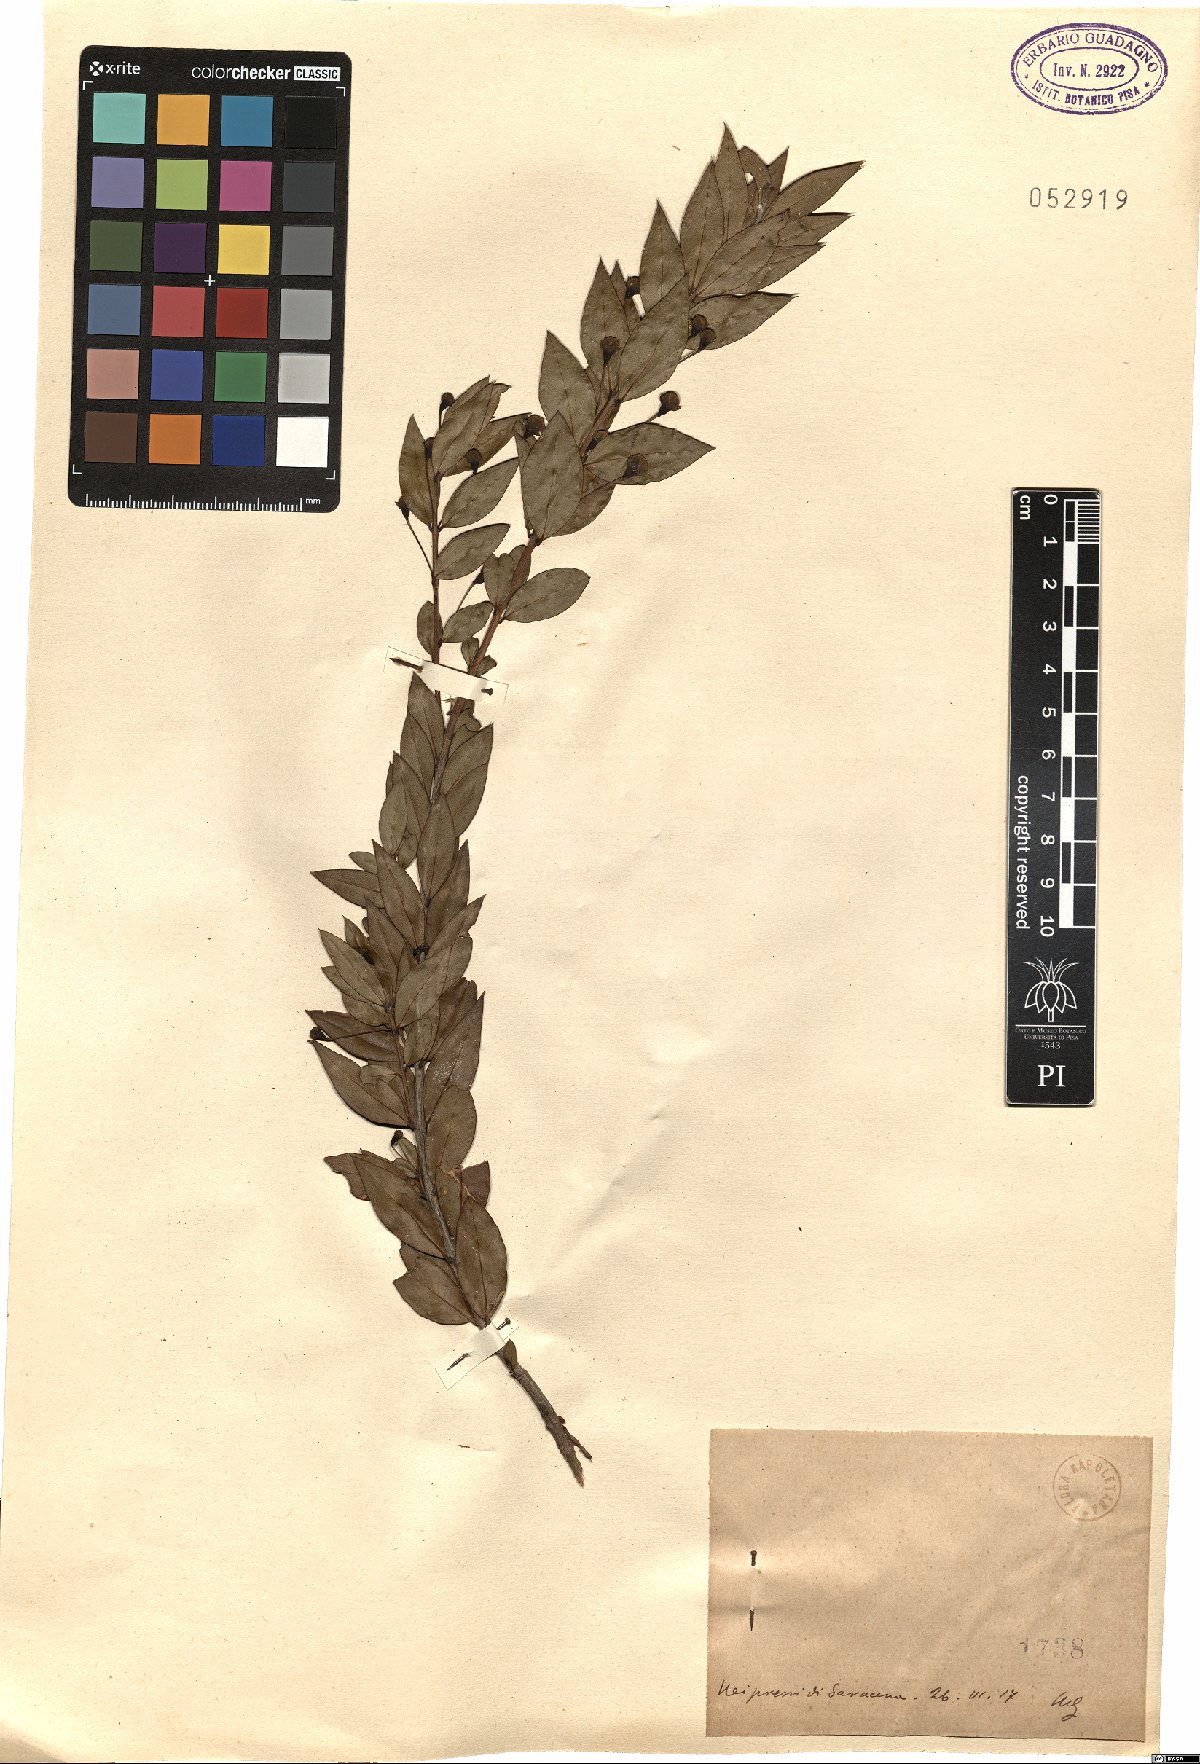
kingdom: Plantae
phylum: Tracheophyta
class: Magnoliopsida
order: Myrtales
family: Myrtaceae
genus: Myrtus
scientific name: Myrtus
